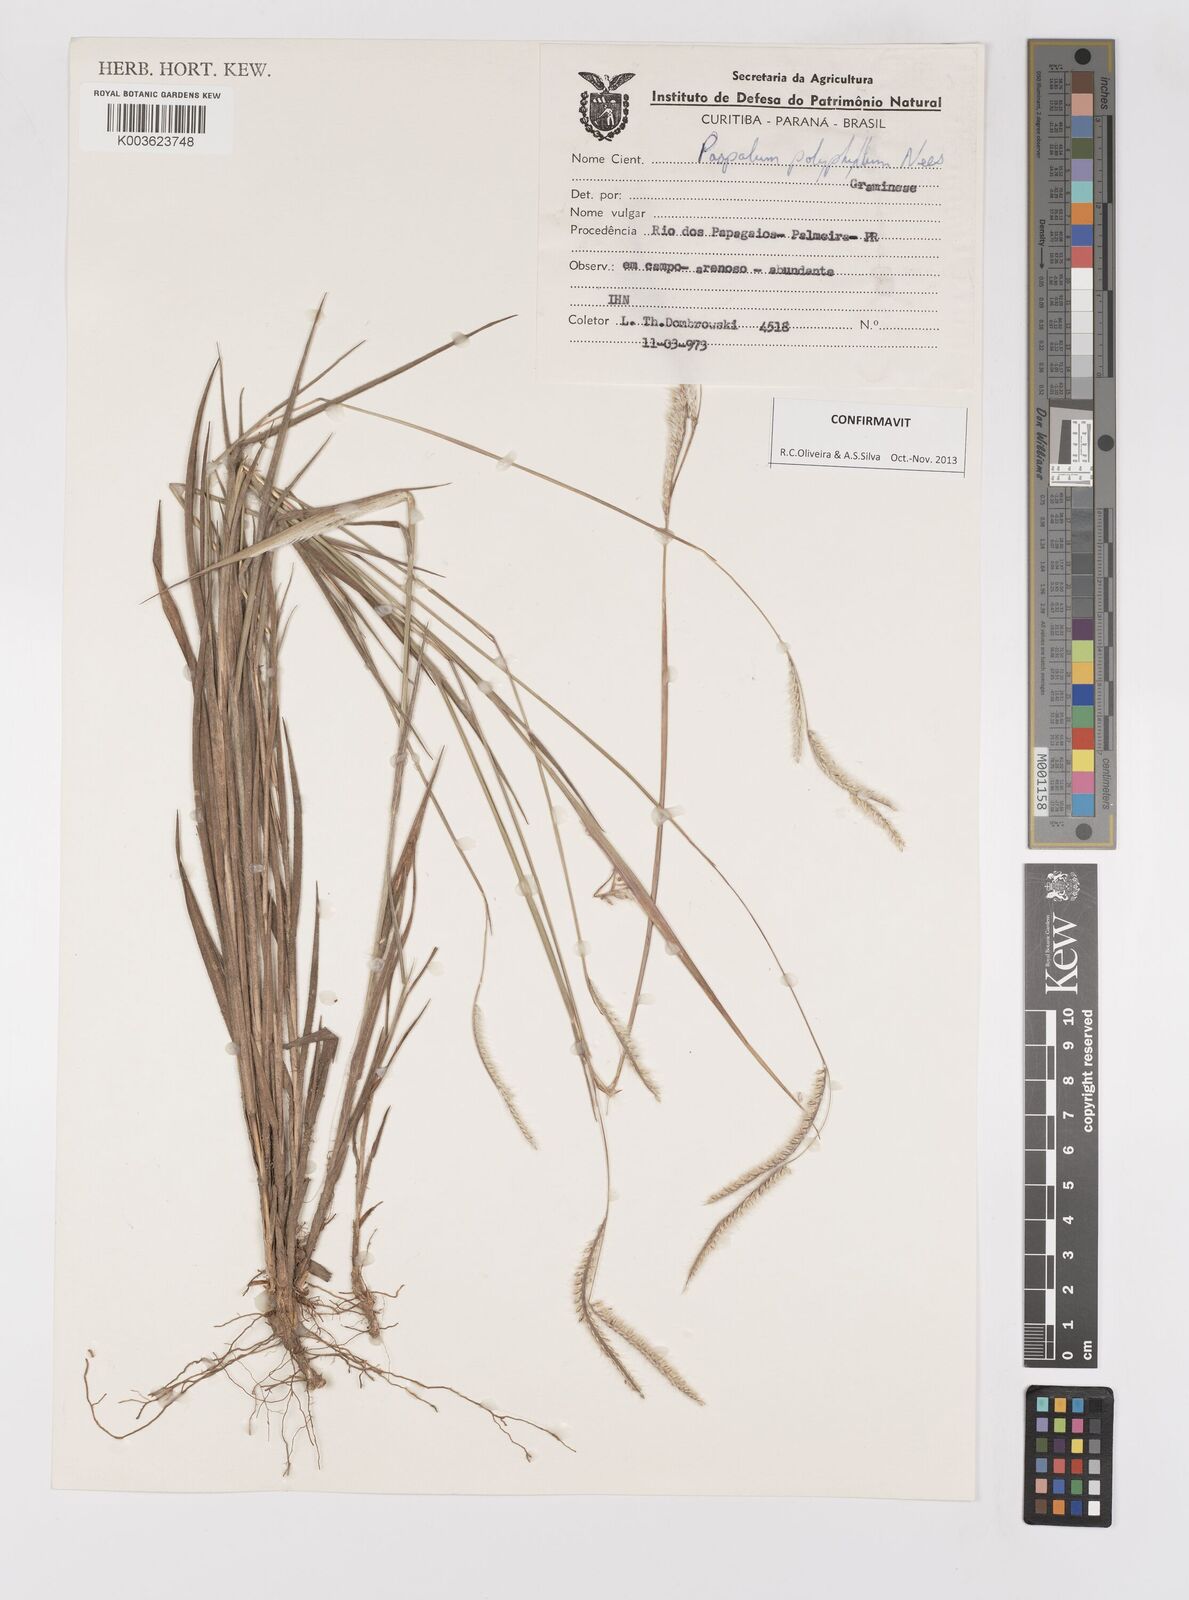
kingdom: Plantae
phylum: Tracheophyta
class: Liliopsida
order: Poales
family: Poaceae
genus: Paspalum
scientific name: Paspalum polyphyllum
